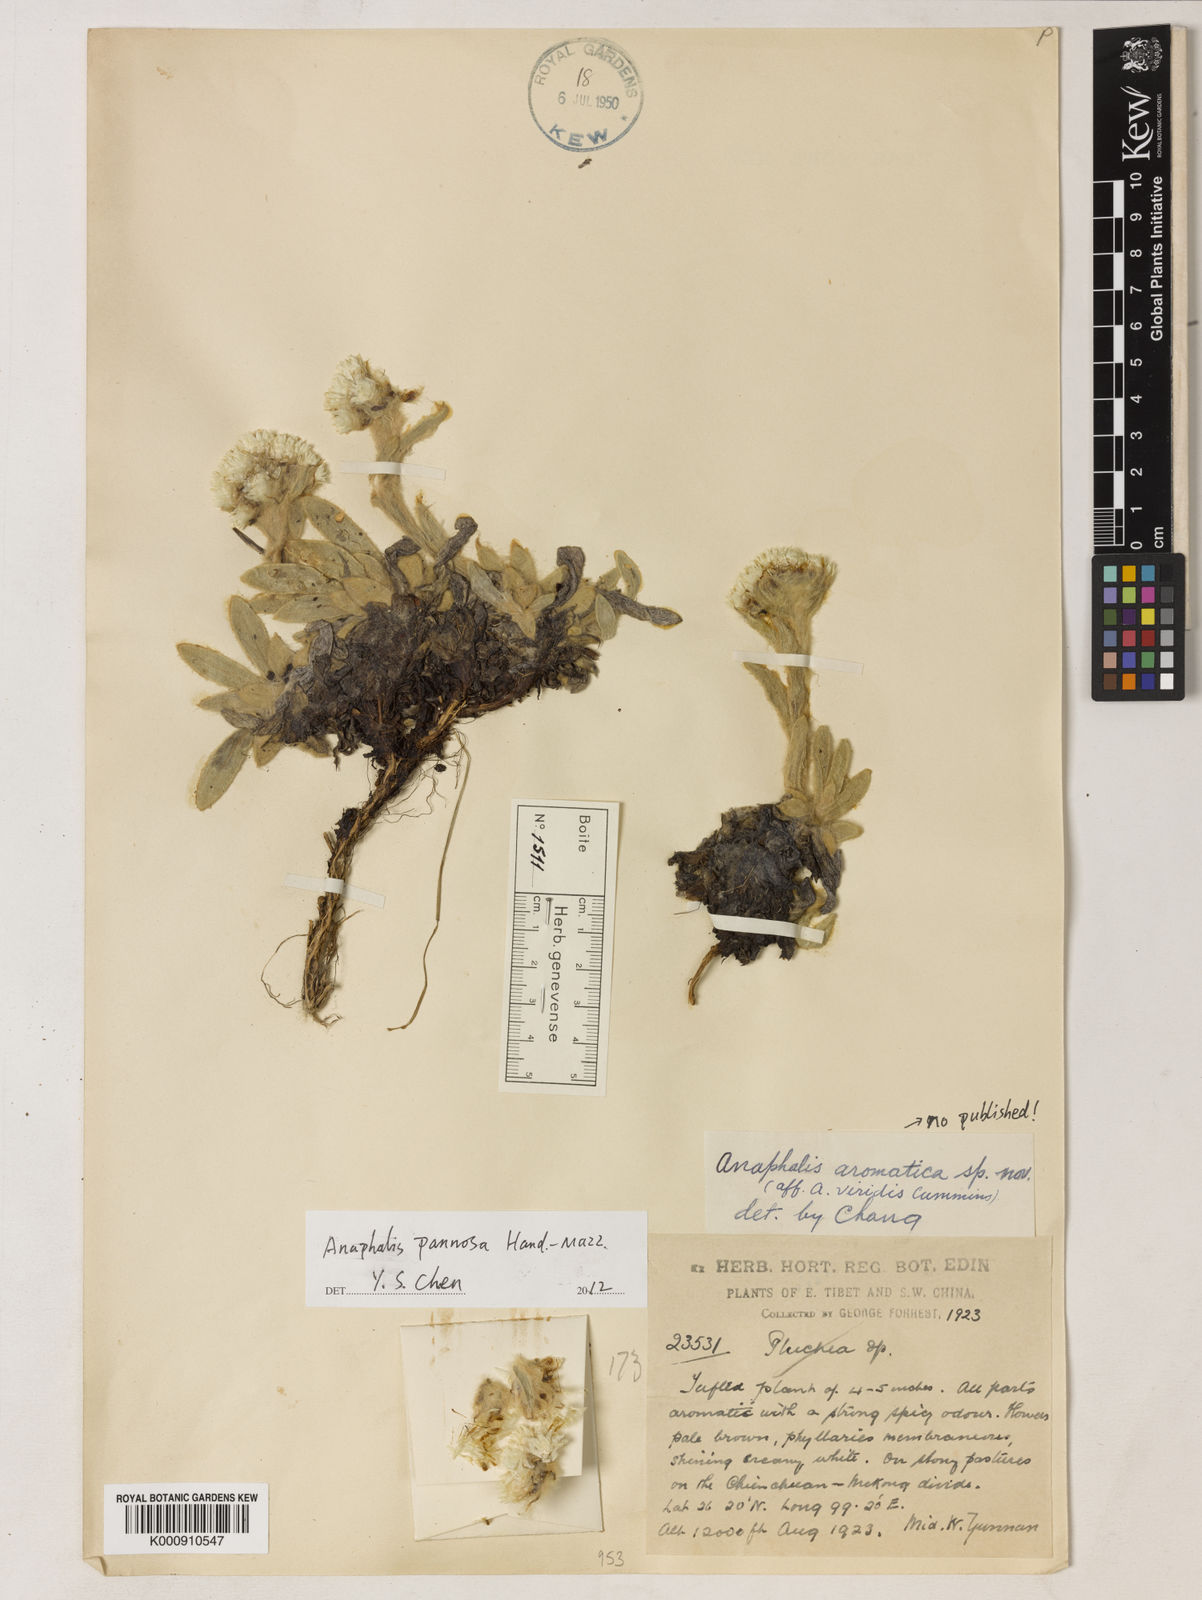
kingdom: Plantae
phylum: Tracheophyta
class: Magnoliopsida
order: Asterales
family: Asteraceae
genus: Anaphalis
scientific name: Anaphalis pannosa
